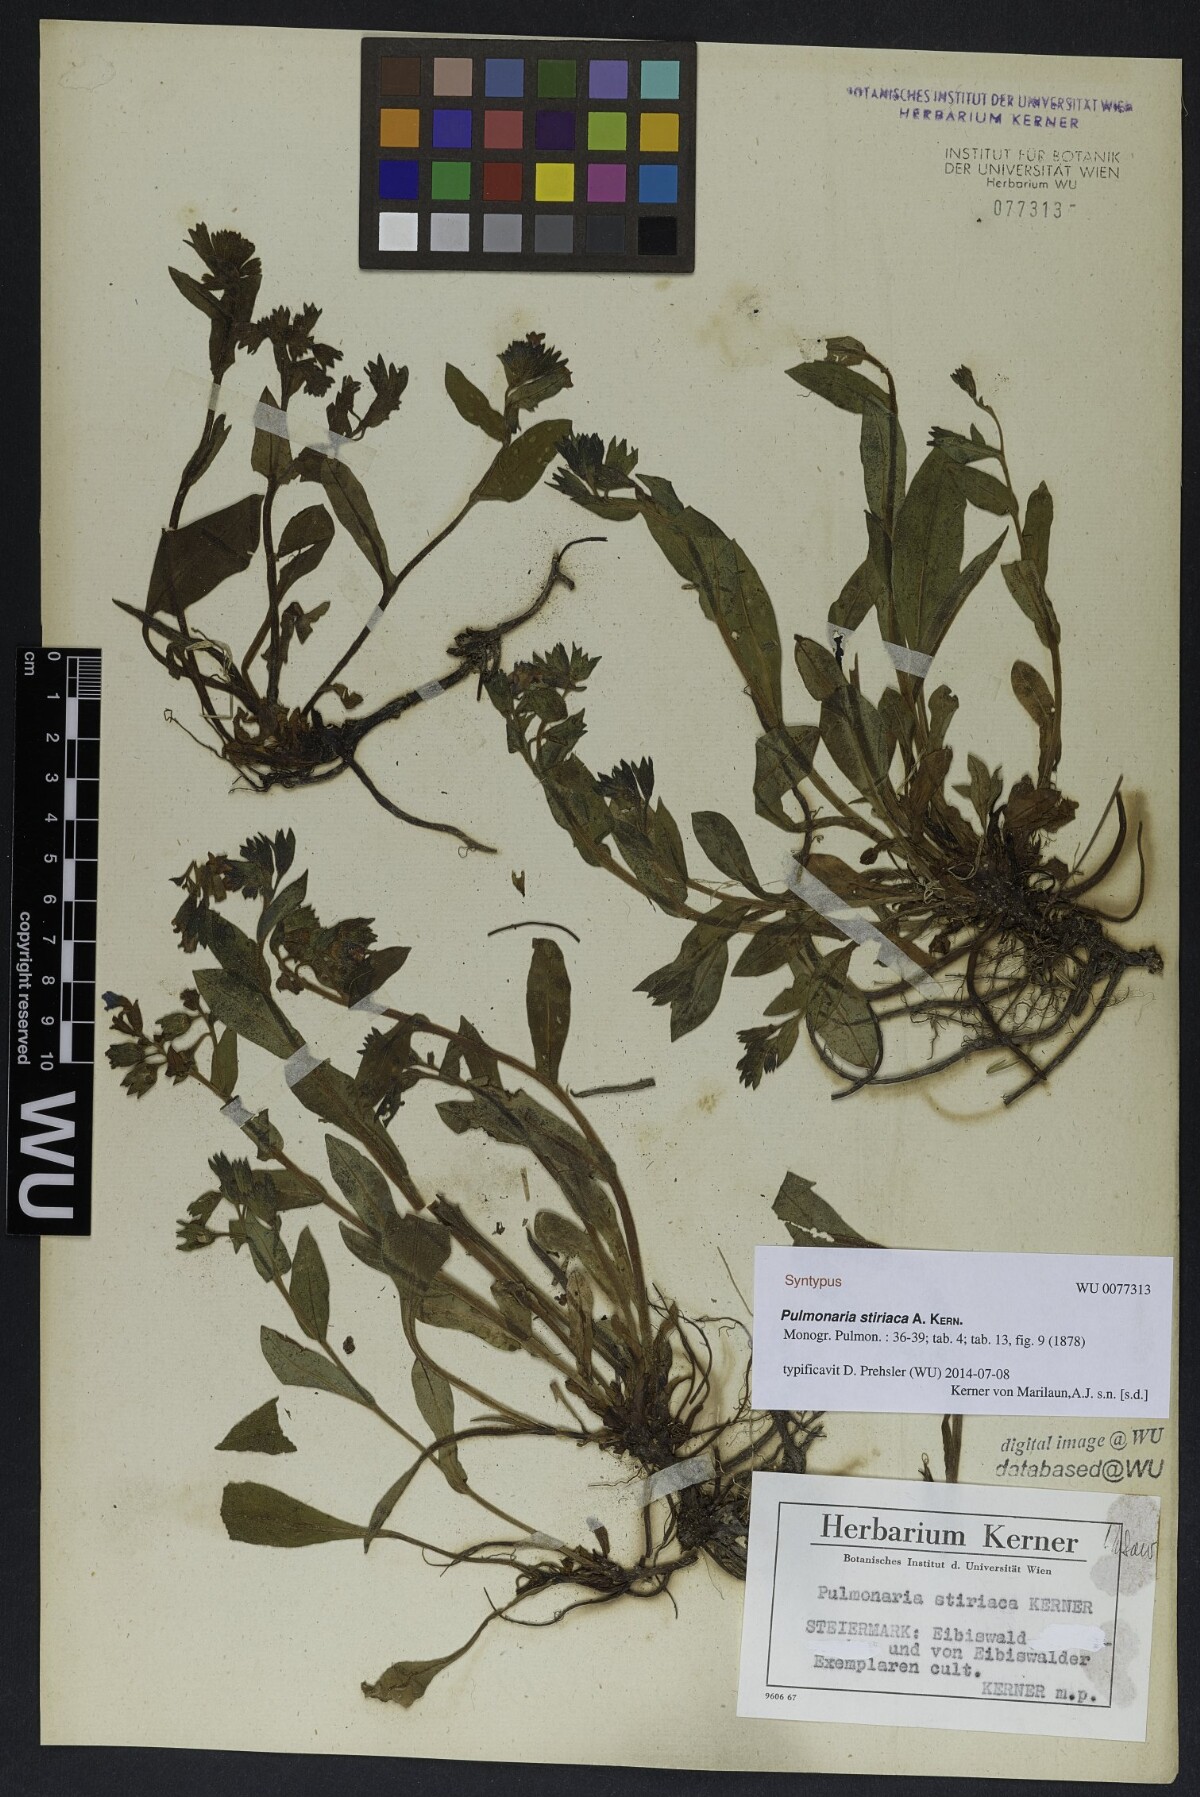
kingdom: Plantae
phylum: Tracheophyta
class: Magnoliopsida
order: Boraginales
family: Boraginaceae
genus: Pulmonaria
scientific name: Pulmonaria stiriaca
